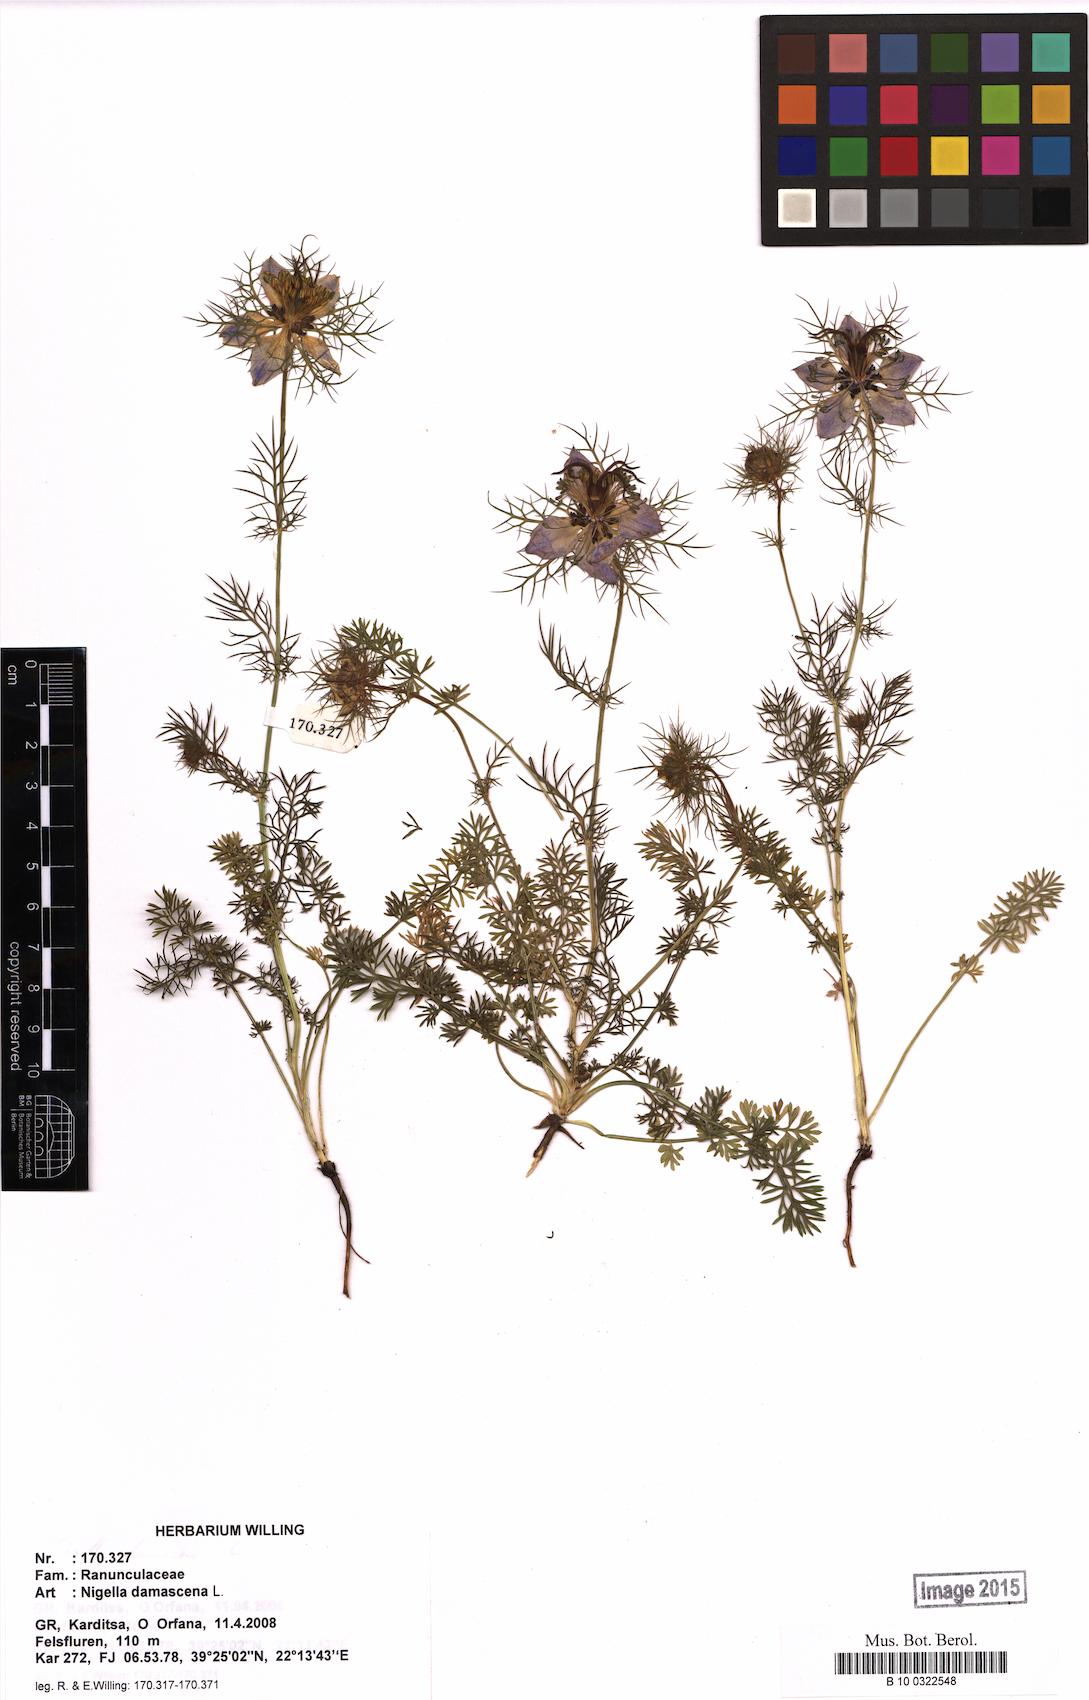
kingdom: Plantae
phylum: Tracheophyta
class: Magnoliopsida
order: Ranunculales
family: Ranunculaceae
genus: Nigella
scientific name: Nigella damascena
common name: Love-in-a-mist
